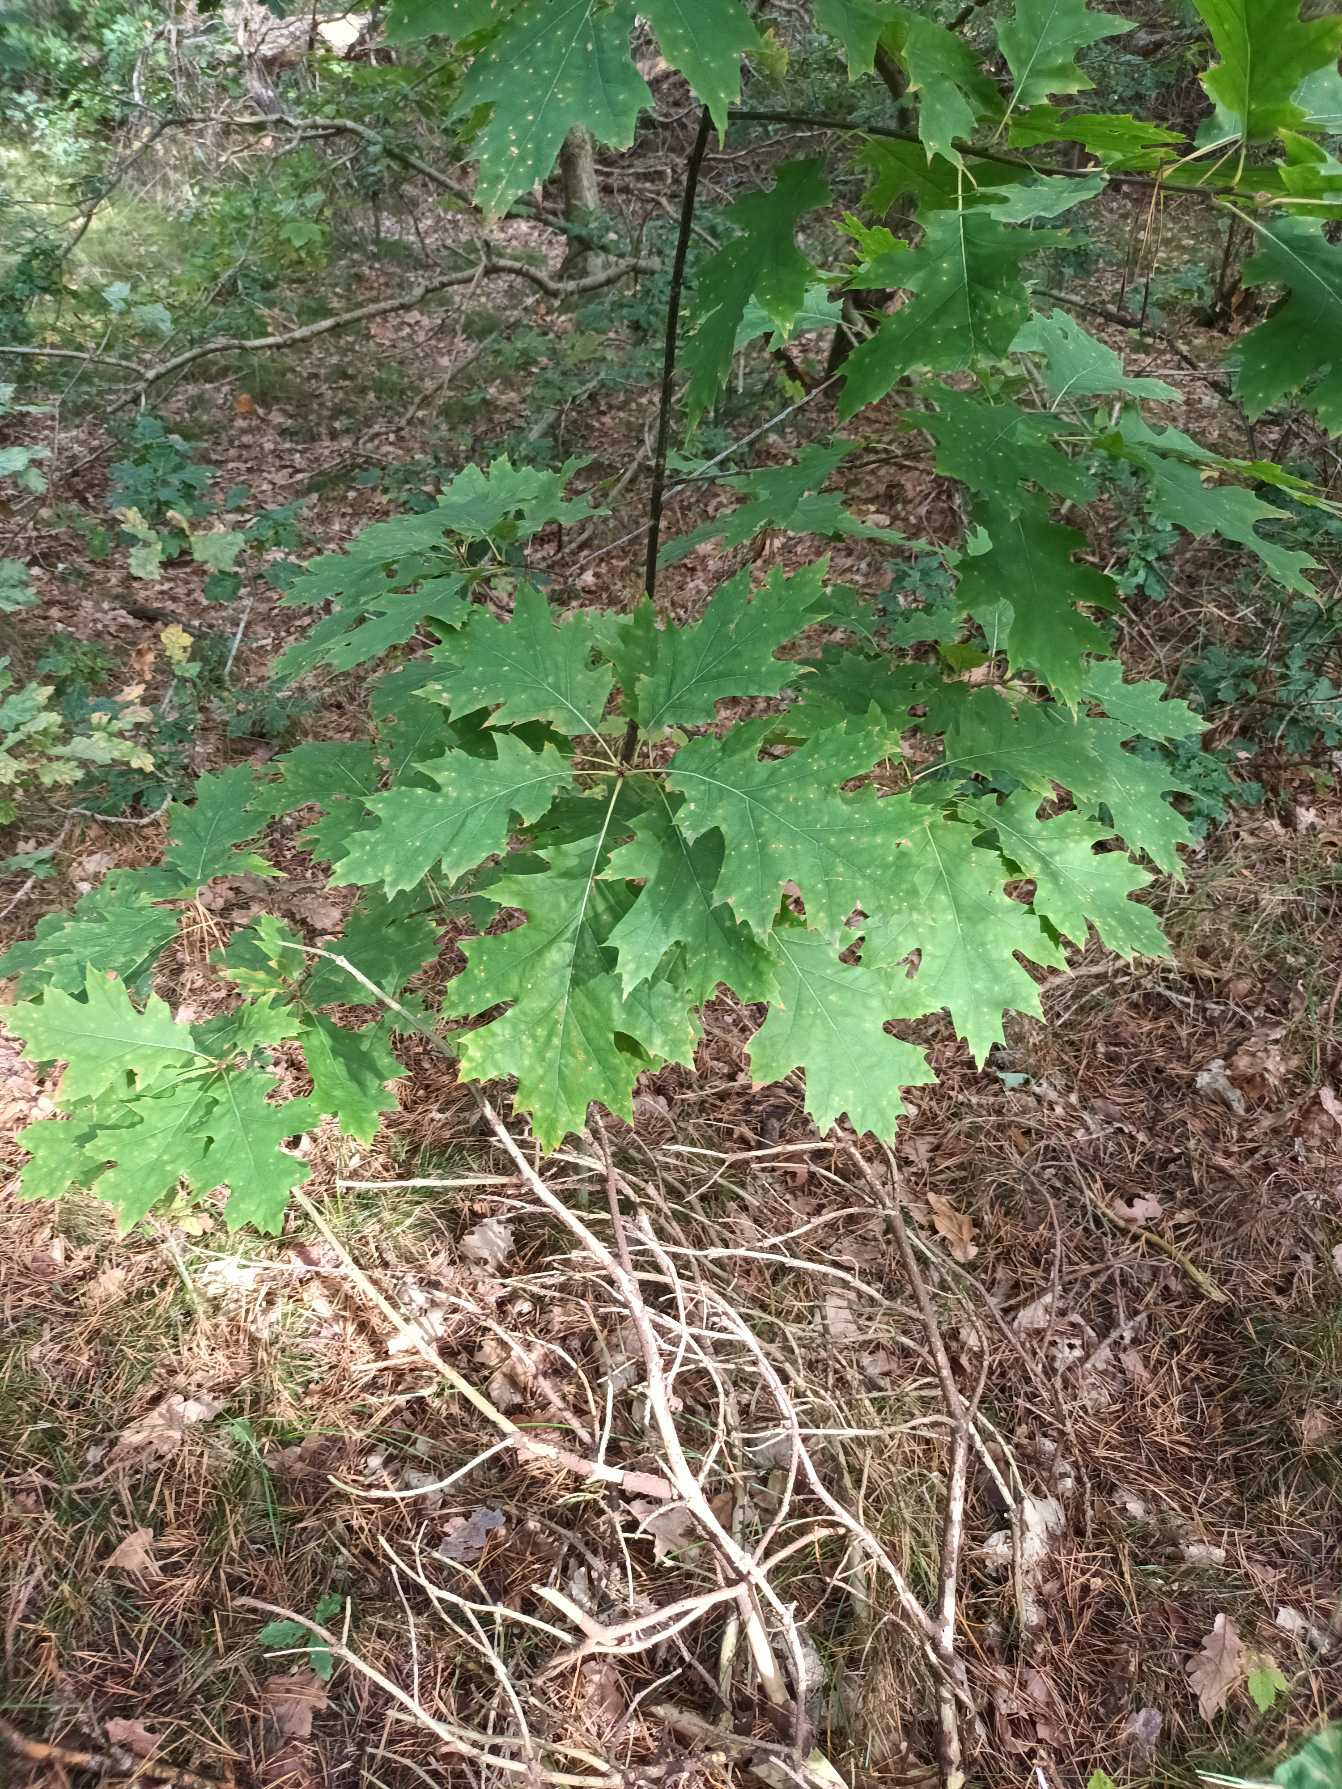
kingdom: Plantae
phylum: Tracheophyta
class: Magnoliopsida
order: Fagales
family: Fagaceae
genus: Quercus
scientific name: Quercus rubra
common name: Rød-eg
